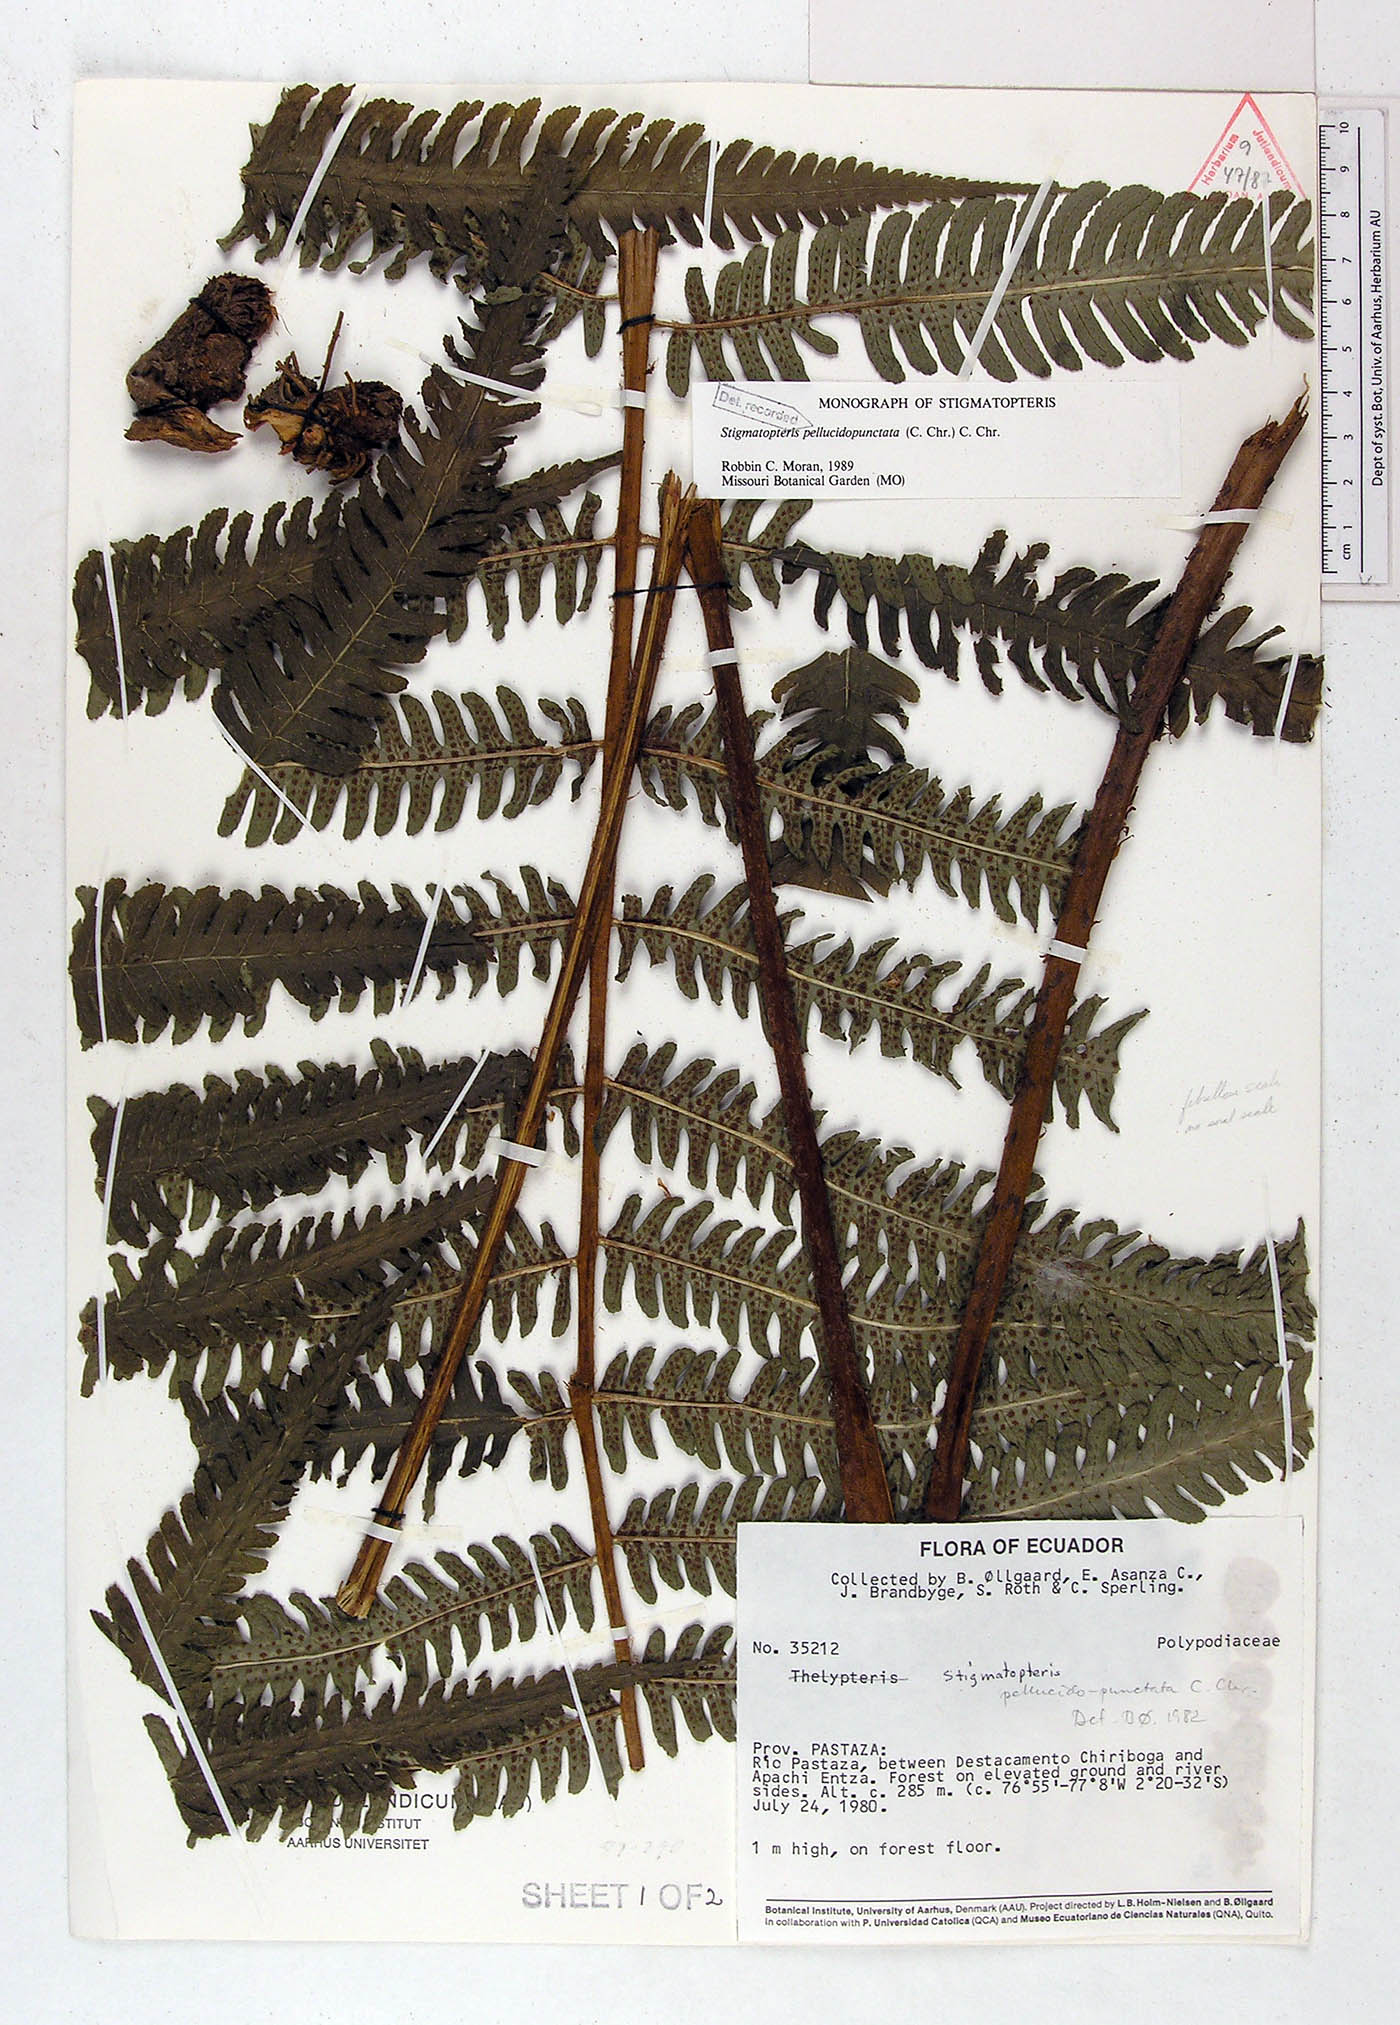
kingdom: Plantae
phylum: Tracheophyta
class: Polypodiopsida
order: Polypodiales
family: Dryopteridaceae
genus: Stigmatopteris
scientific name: Stigmatopteris pellucidopunctata
